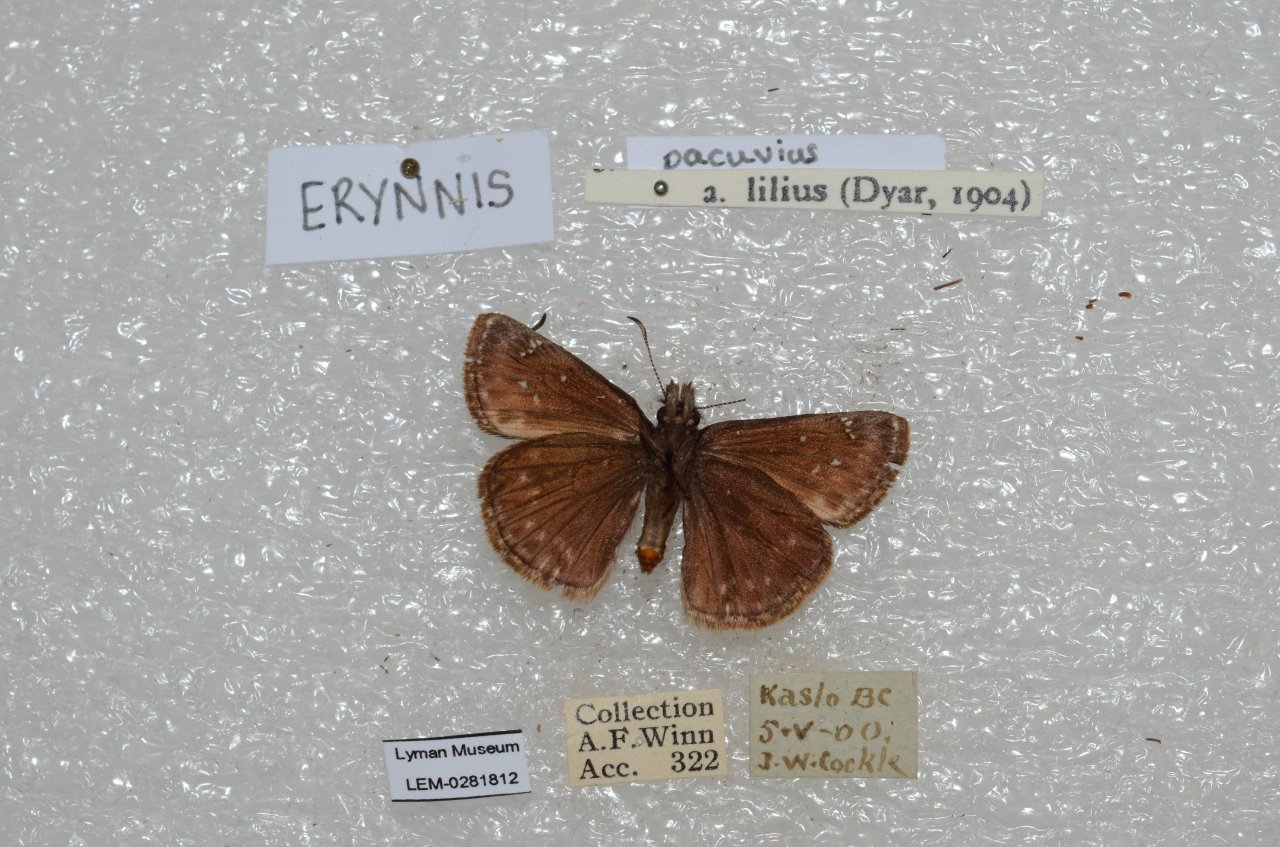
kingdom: Animalia
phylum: Arthropoda
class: Insecta
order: Lepidoptera
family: Hesperiidae
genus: Erynnis
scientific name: Erynnis pacuvius
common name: Pacuvius Duskywing
